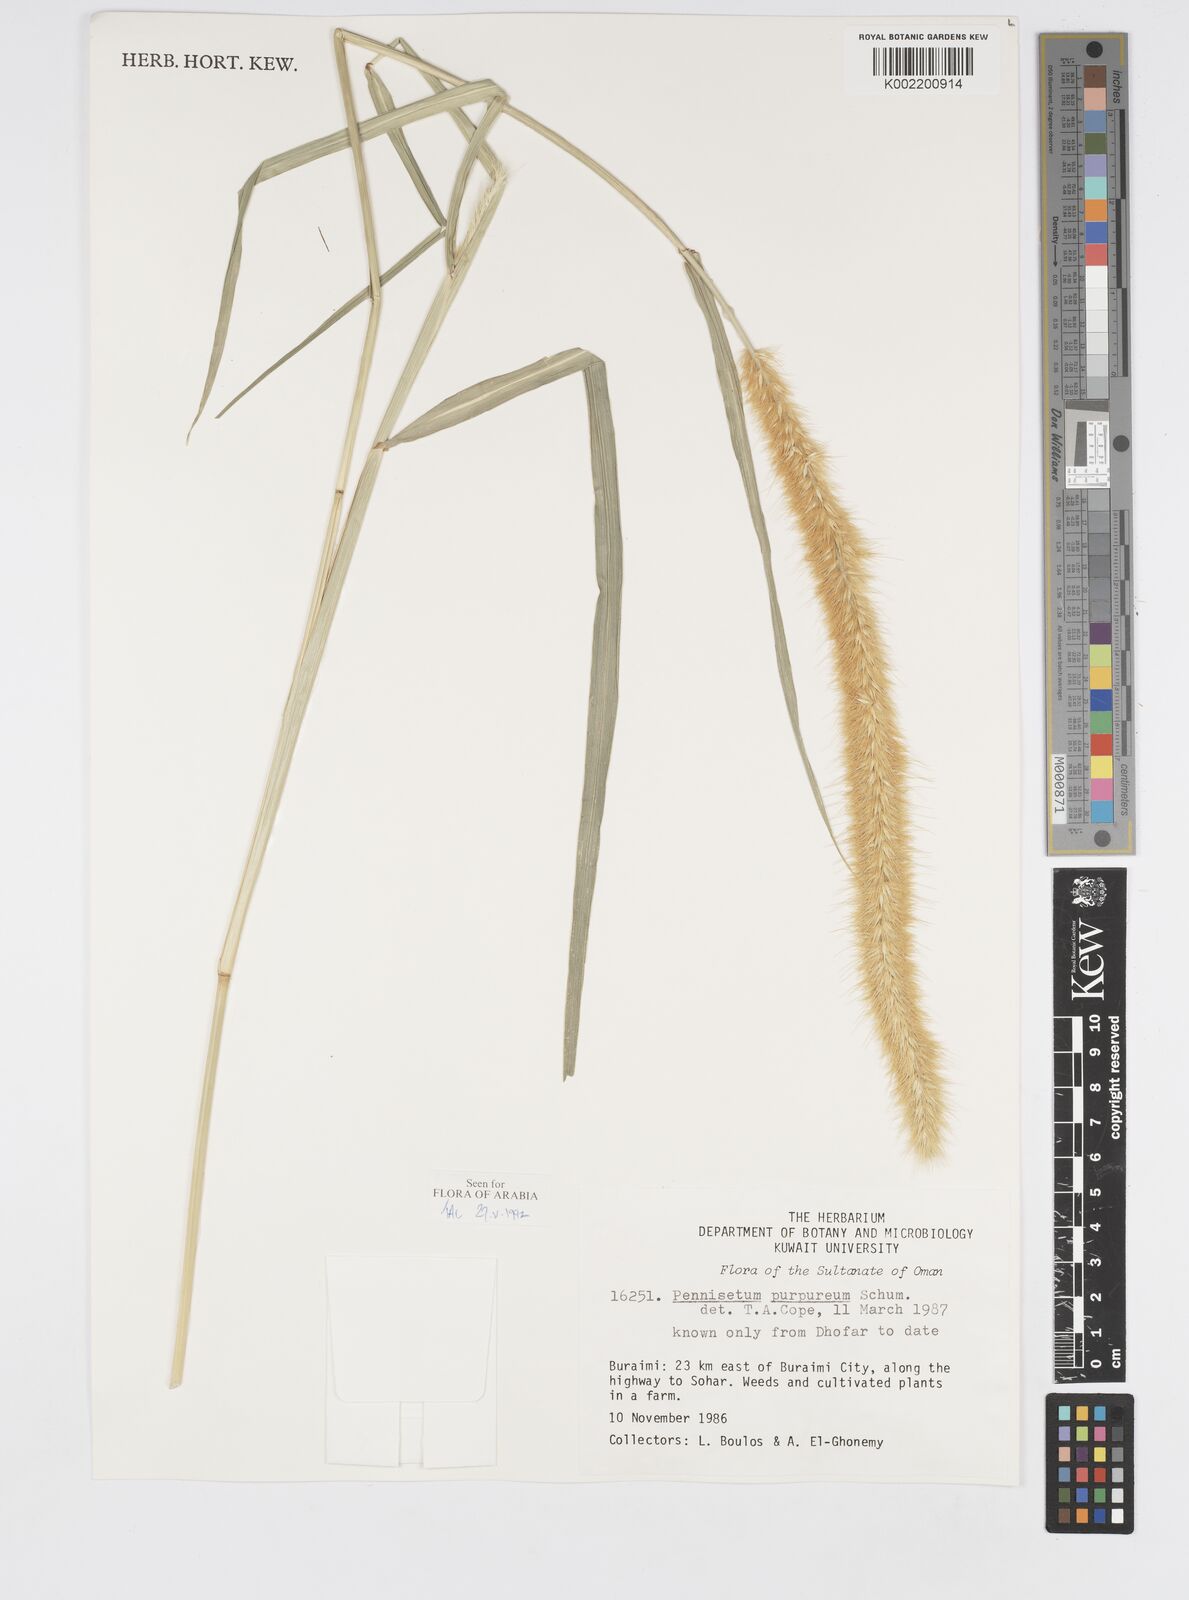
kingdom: Plantae
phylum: Tracheophyta
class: Liliopsida
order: Poales
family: Poaceae
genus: Cenchrus
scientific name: Cenchrus purpureus
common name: Elephant grass
